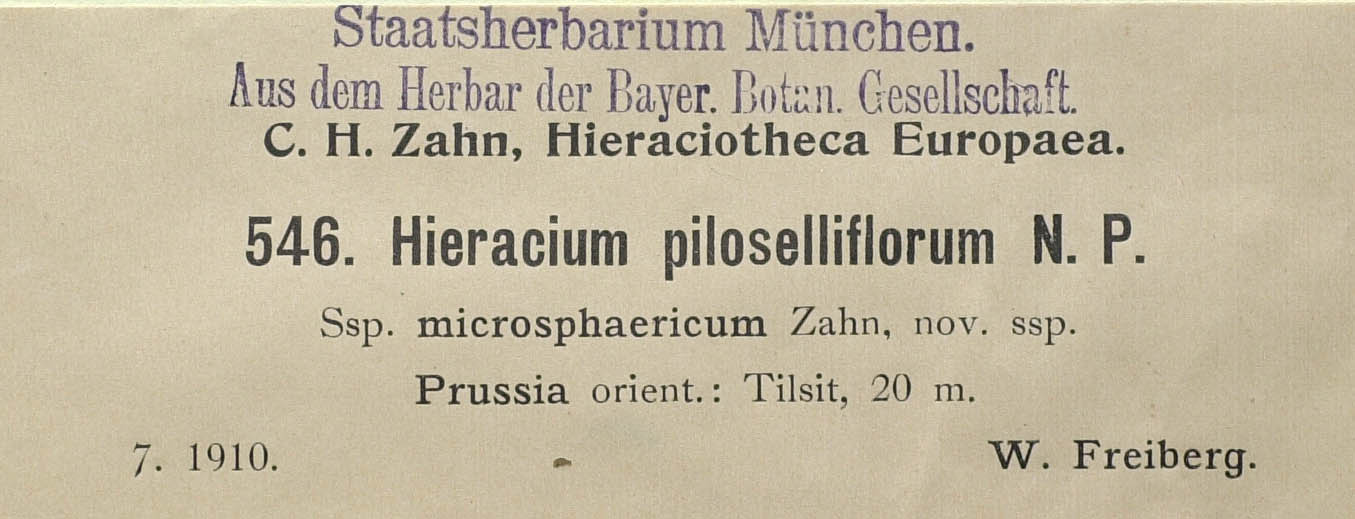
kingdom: Plantae
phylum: Tracheophyta
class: Magnoliopsida
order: Asterales
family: Asteraceae
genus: Pilosella
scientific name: Pilosella piloselliflora
